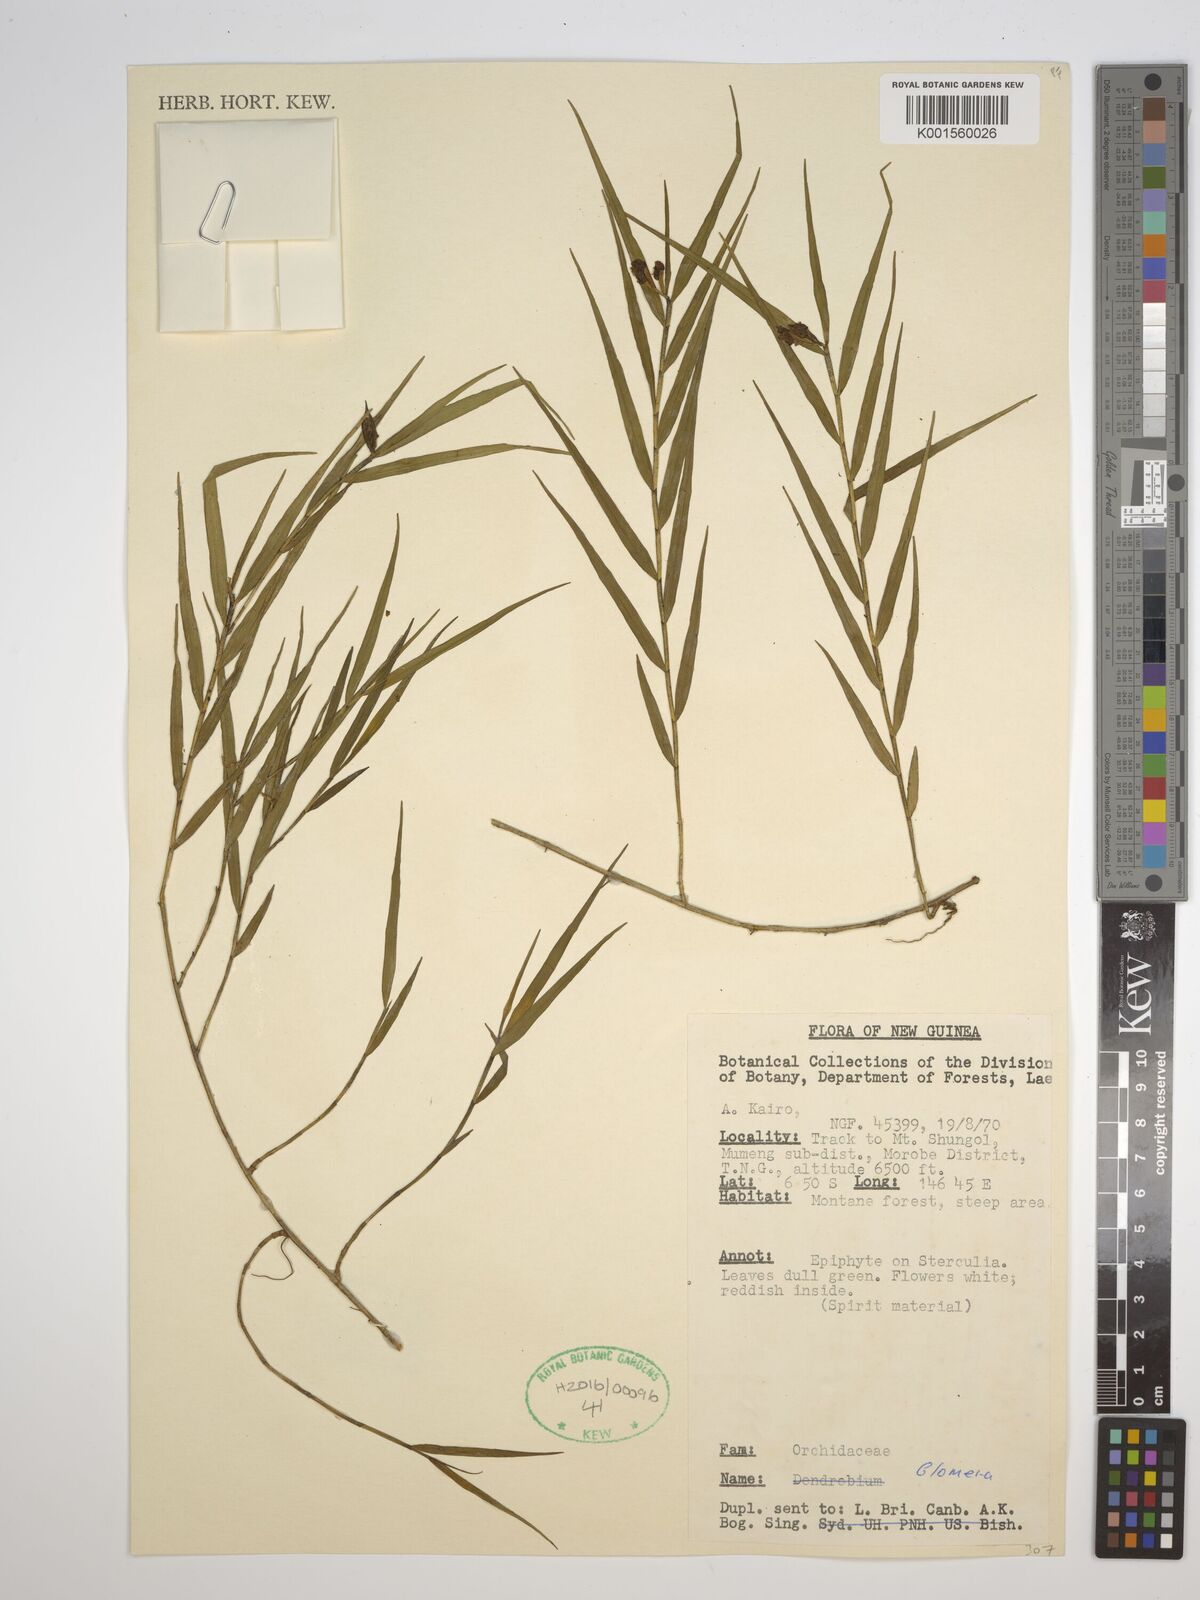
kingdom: Plantae
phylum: Tracheophyta
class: Liliopsida
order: Asparagales
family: Orchidaceae
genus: Glomera
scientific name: Glomera
